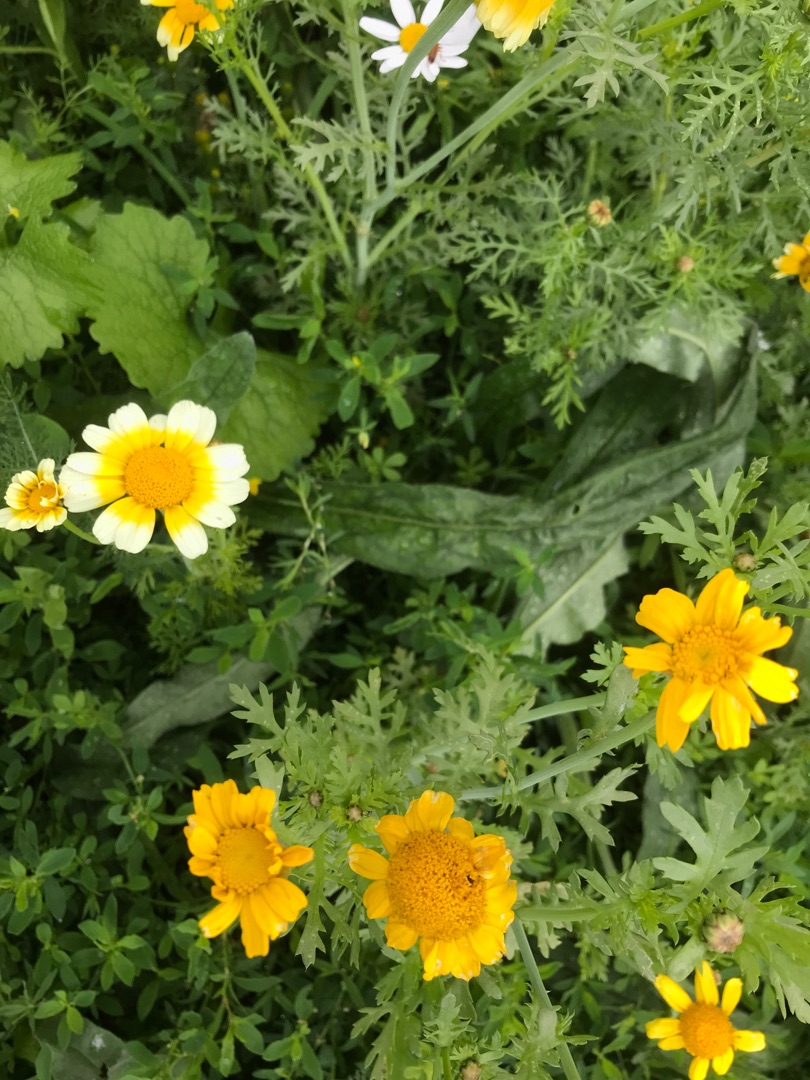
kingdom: Plantae
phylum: Tracheophyta
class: Magnoliopsida
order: Asterales
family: Asteraceae
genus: Glebionis
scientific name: Glebionis coronaria
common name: Kron-okseøje
